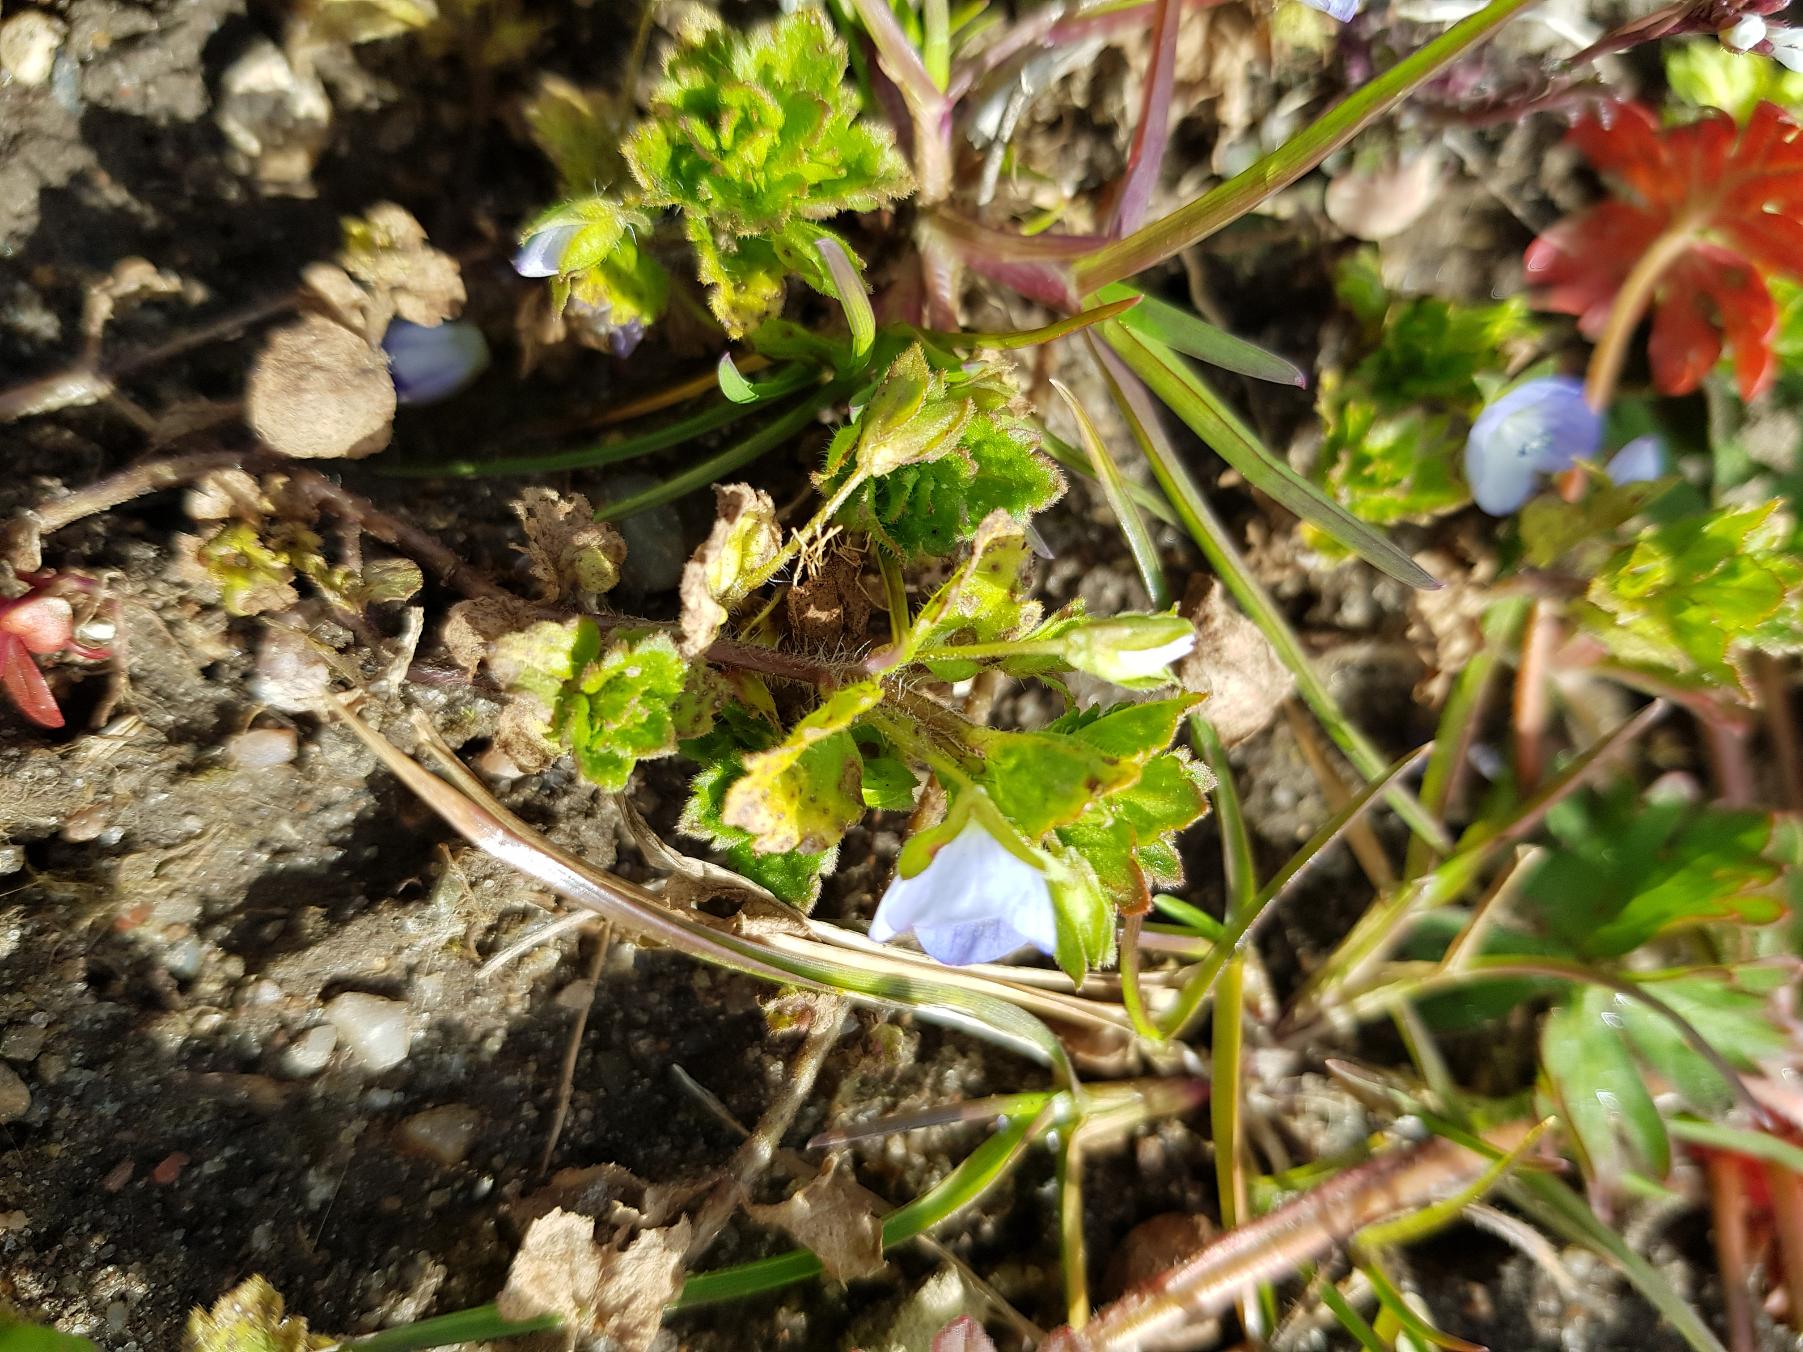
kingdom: Plantae
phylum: Tracheophyta
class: Magnoliopsida
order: Lamiales
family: Plantaginaceae
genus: Veronica
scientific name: Veronica persica
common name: Storkronet ærenpris
